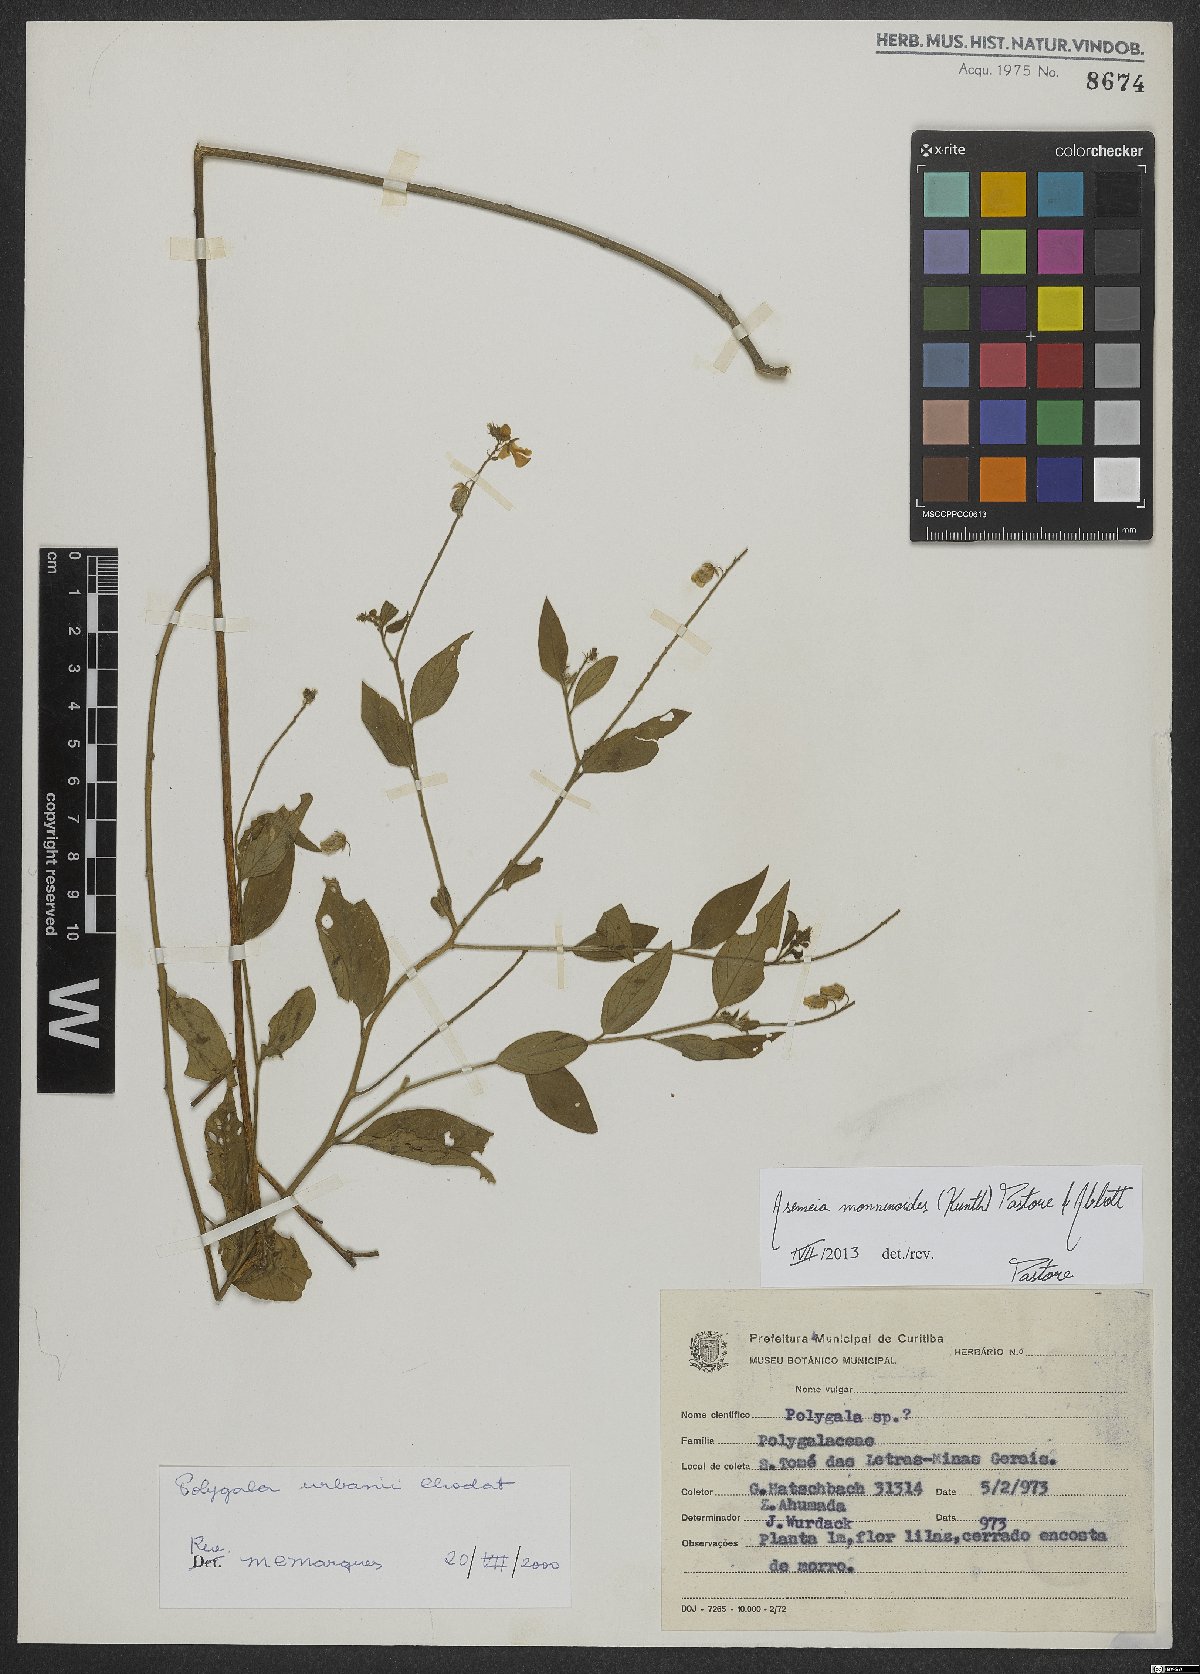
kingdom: Plantae
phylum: Tracheophyta
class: Magnoliopsida
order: Fabales
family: Polygalaceae
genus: Asemeia
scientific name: Asemeia monninoides
